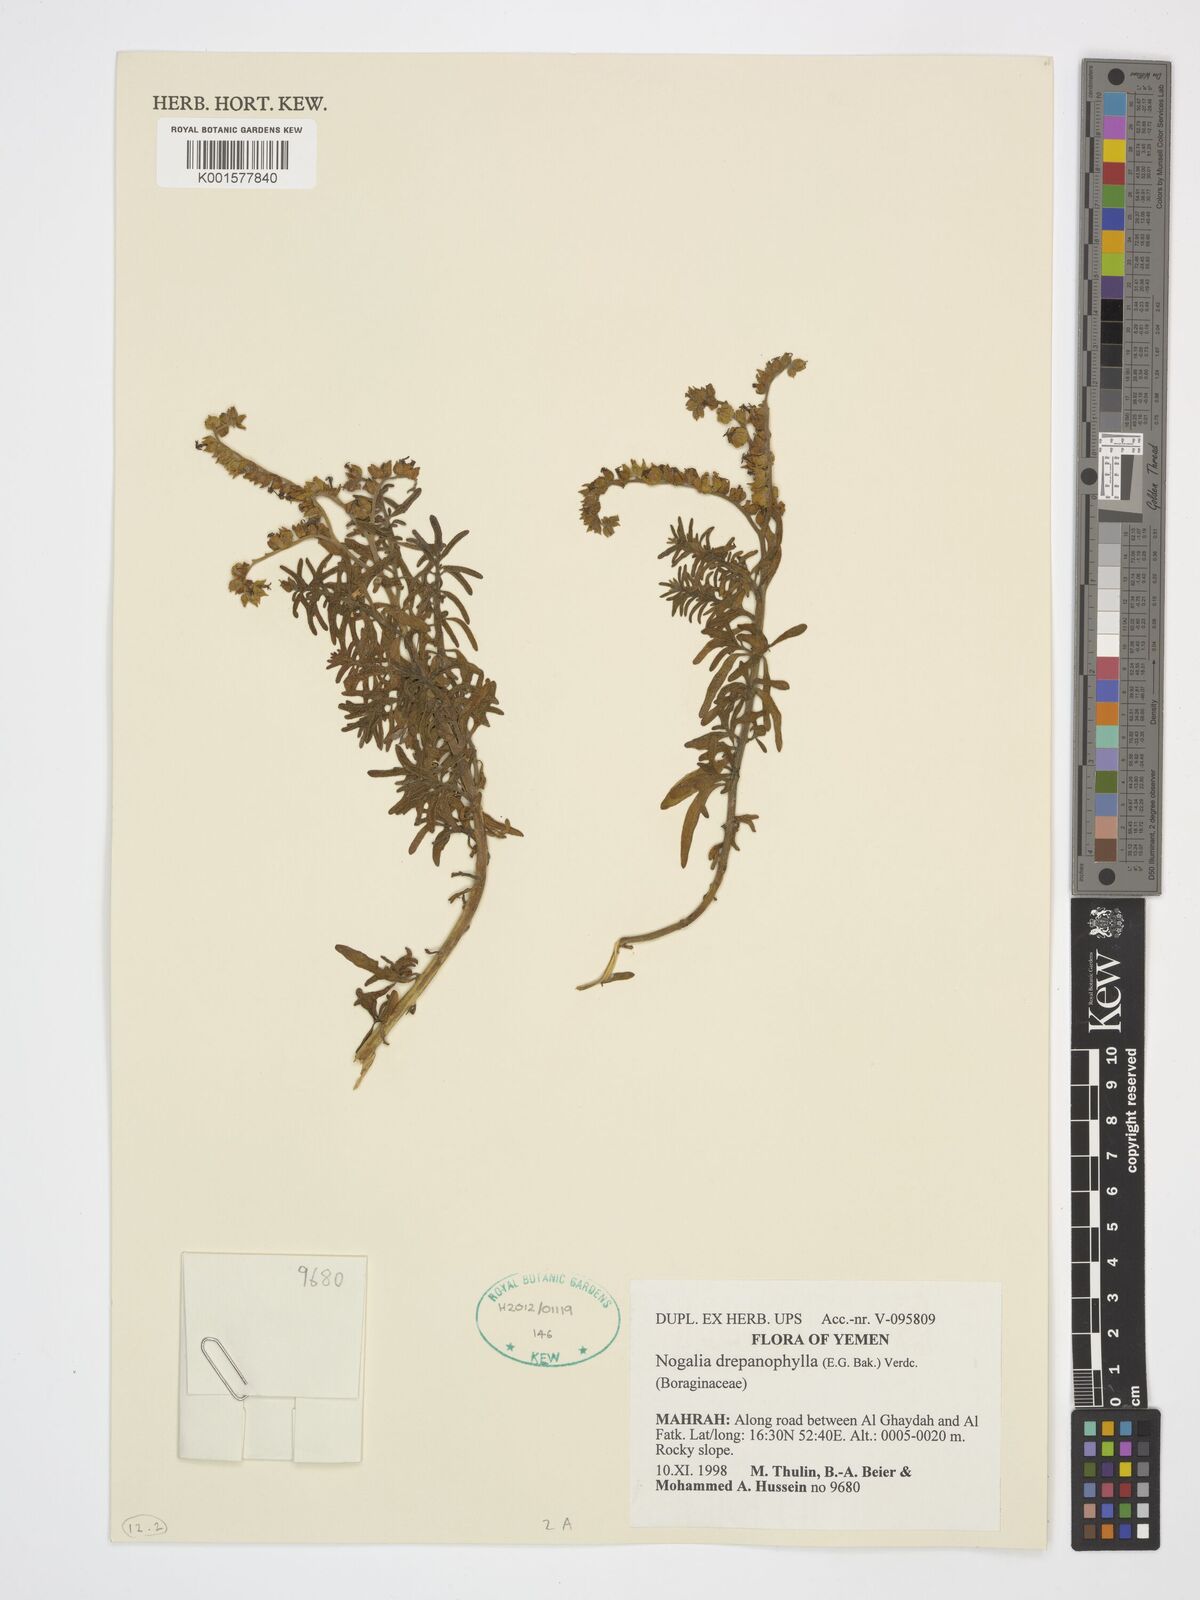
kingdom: Plantae
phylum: Tracheophyta
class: Magnoliopsida
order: Boraginales
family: Heliotropiaceae
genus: Heliotropium
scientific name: Heliotropium drepanophyllum
